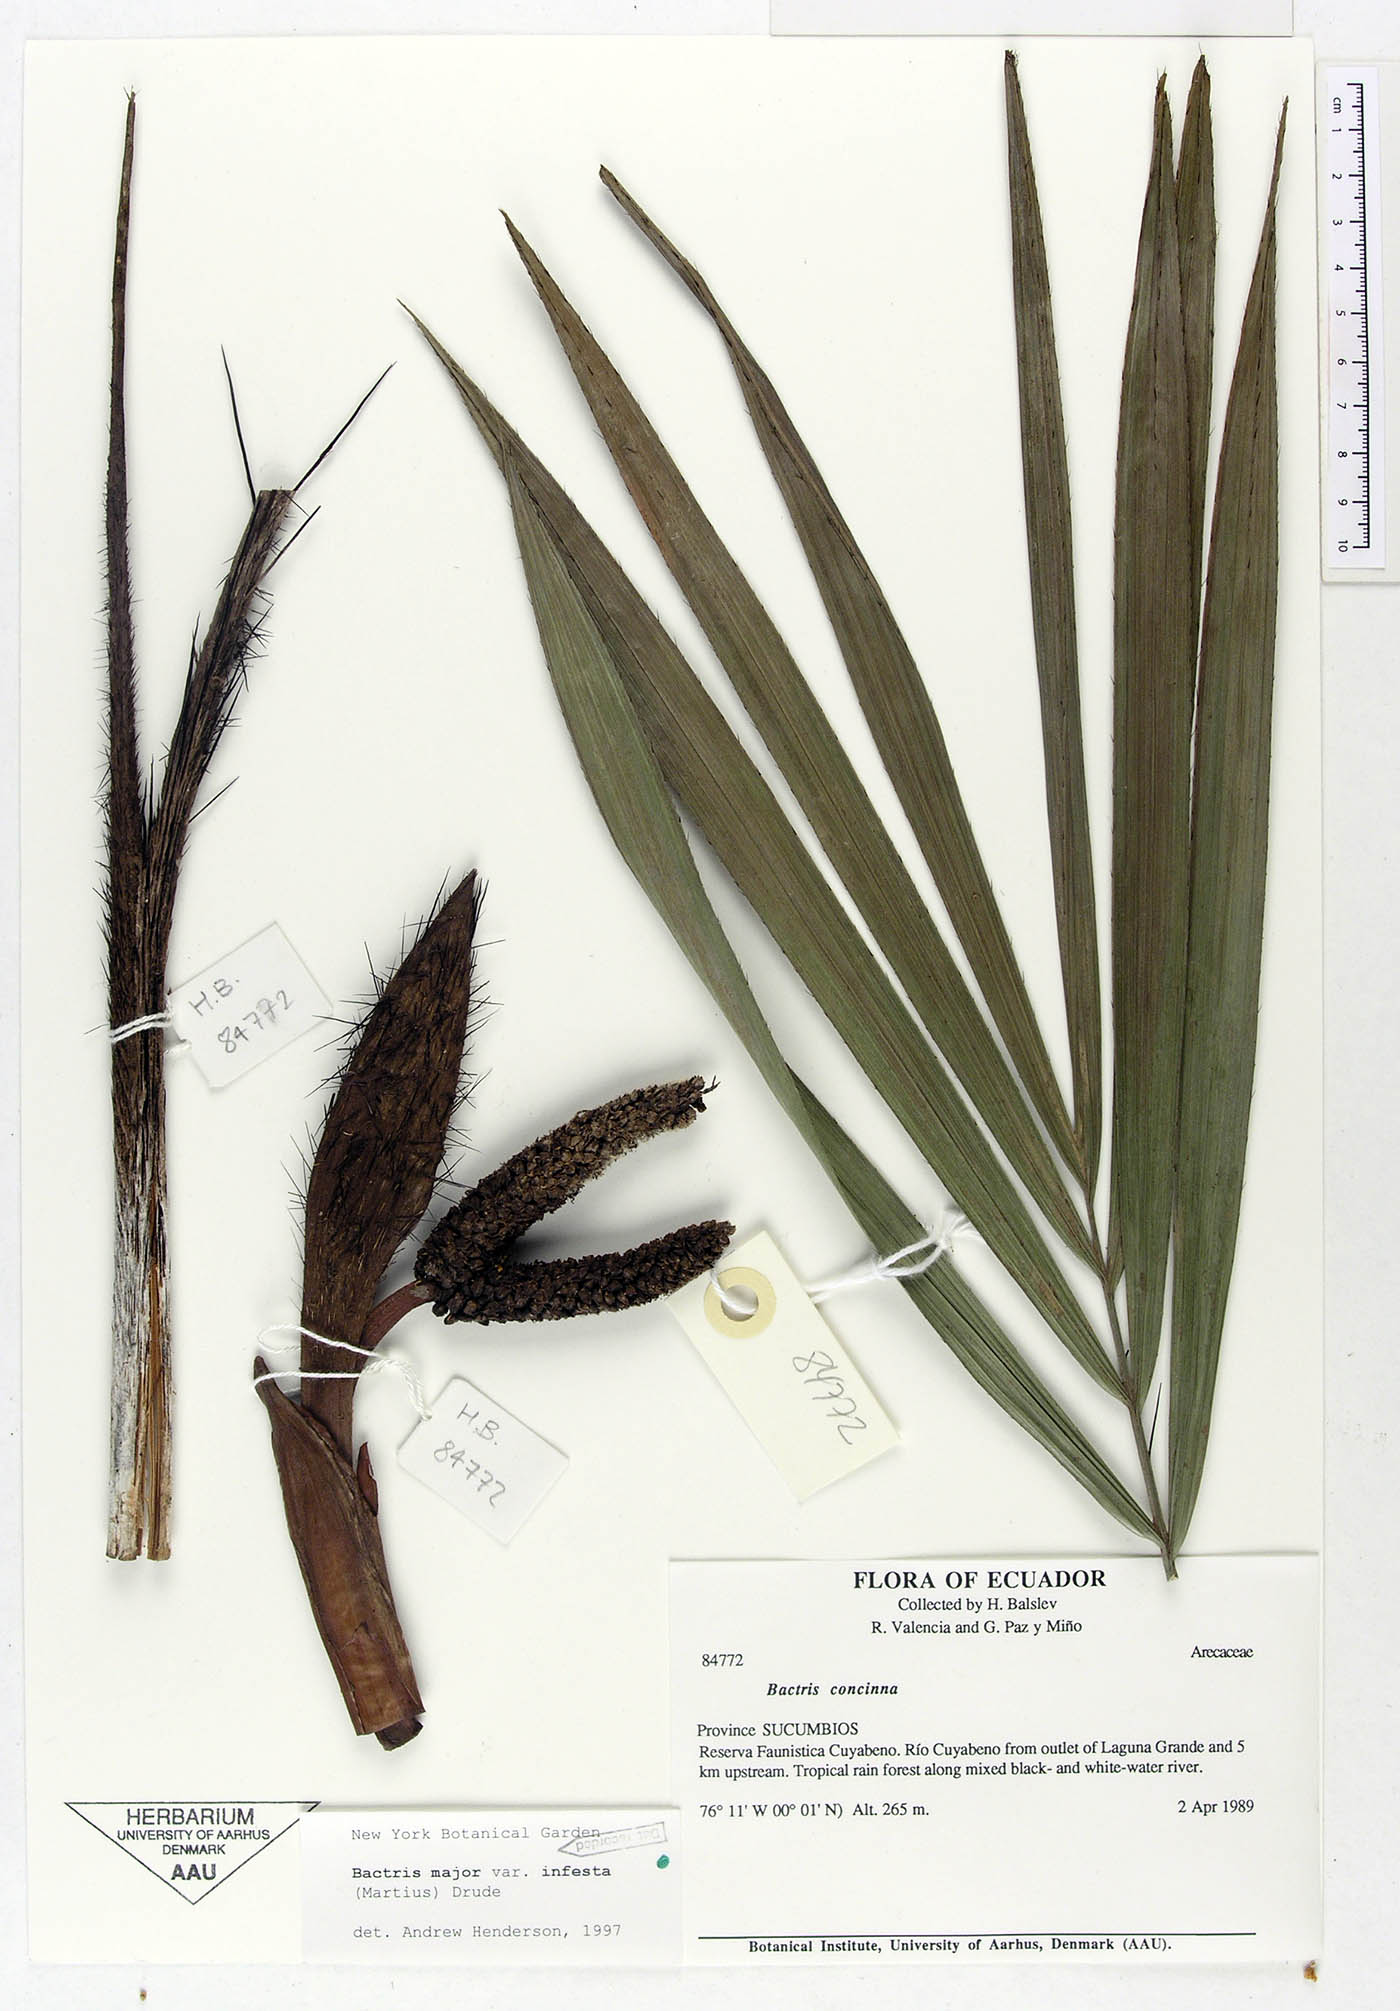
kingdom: Plantae
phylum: Tracheophyta
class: Liliopsida
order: Arecales
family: Arecaceae
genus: Bactris
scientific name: Bactris major
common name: Beach palm
